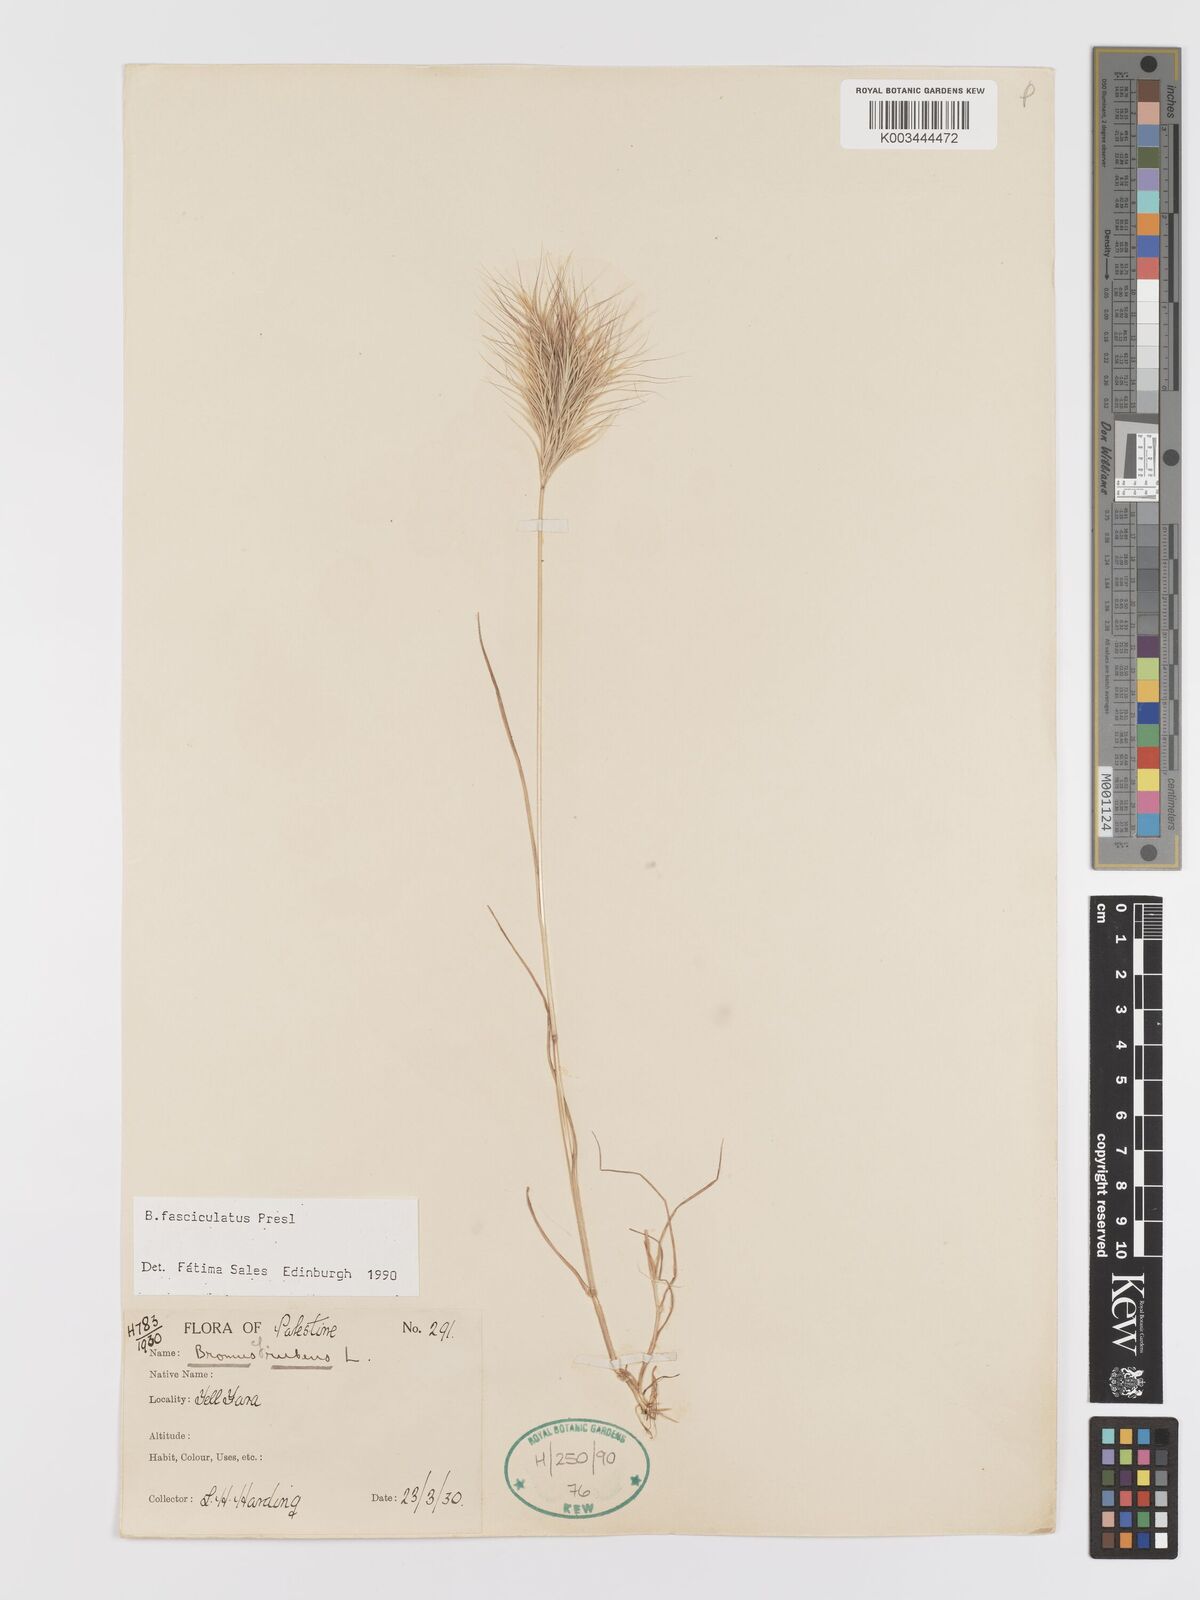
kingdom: Plantae
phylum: Tracheophyta
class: Liliopsida
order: Poales
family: Poaceae
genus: Bromus
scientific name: Bromus fasciculatus
